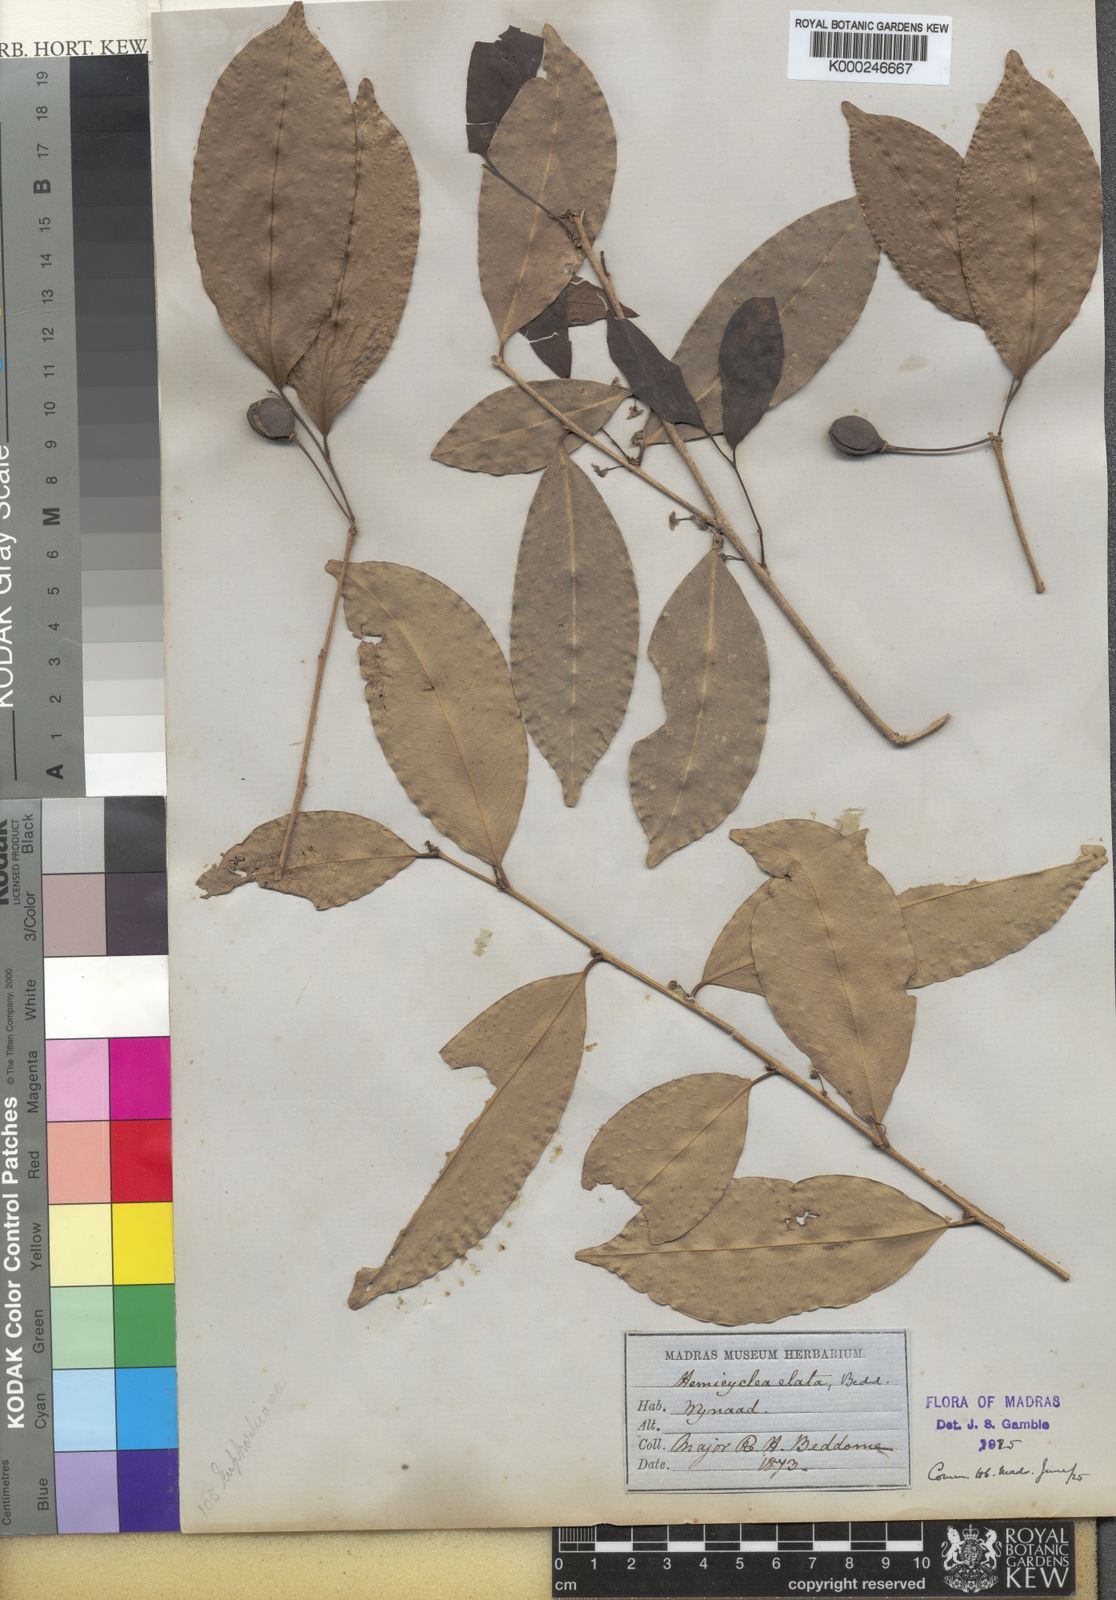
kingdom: Plantae
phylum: Tracheophyta
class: Magnoliopsida
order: Malpighiales
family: Putranjivaceae
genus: Drypetes
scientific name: Drypetes venusta
